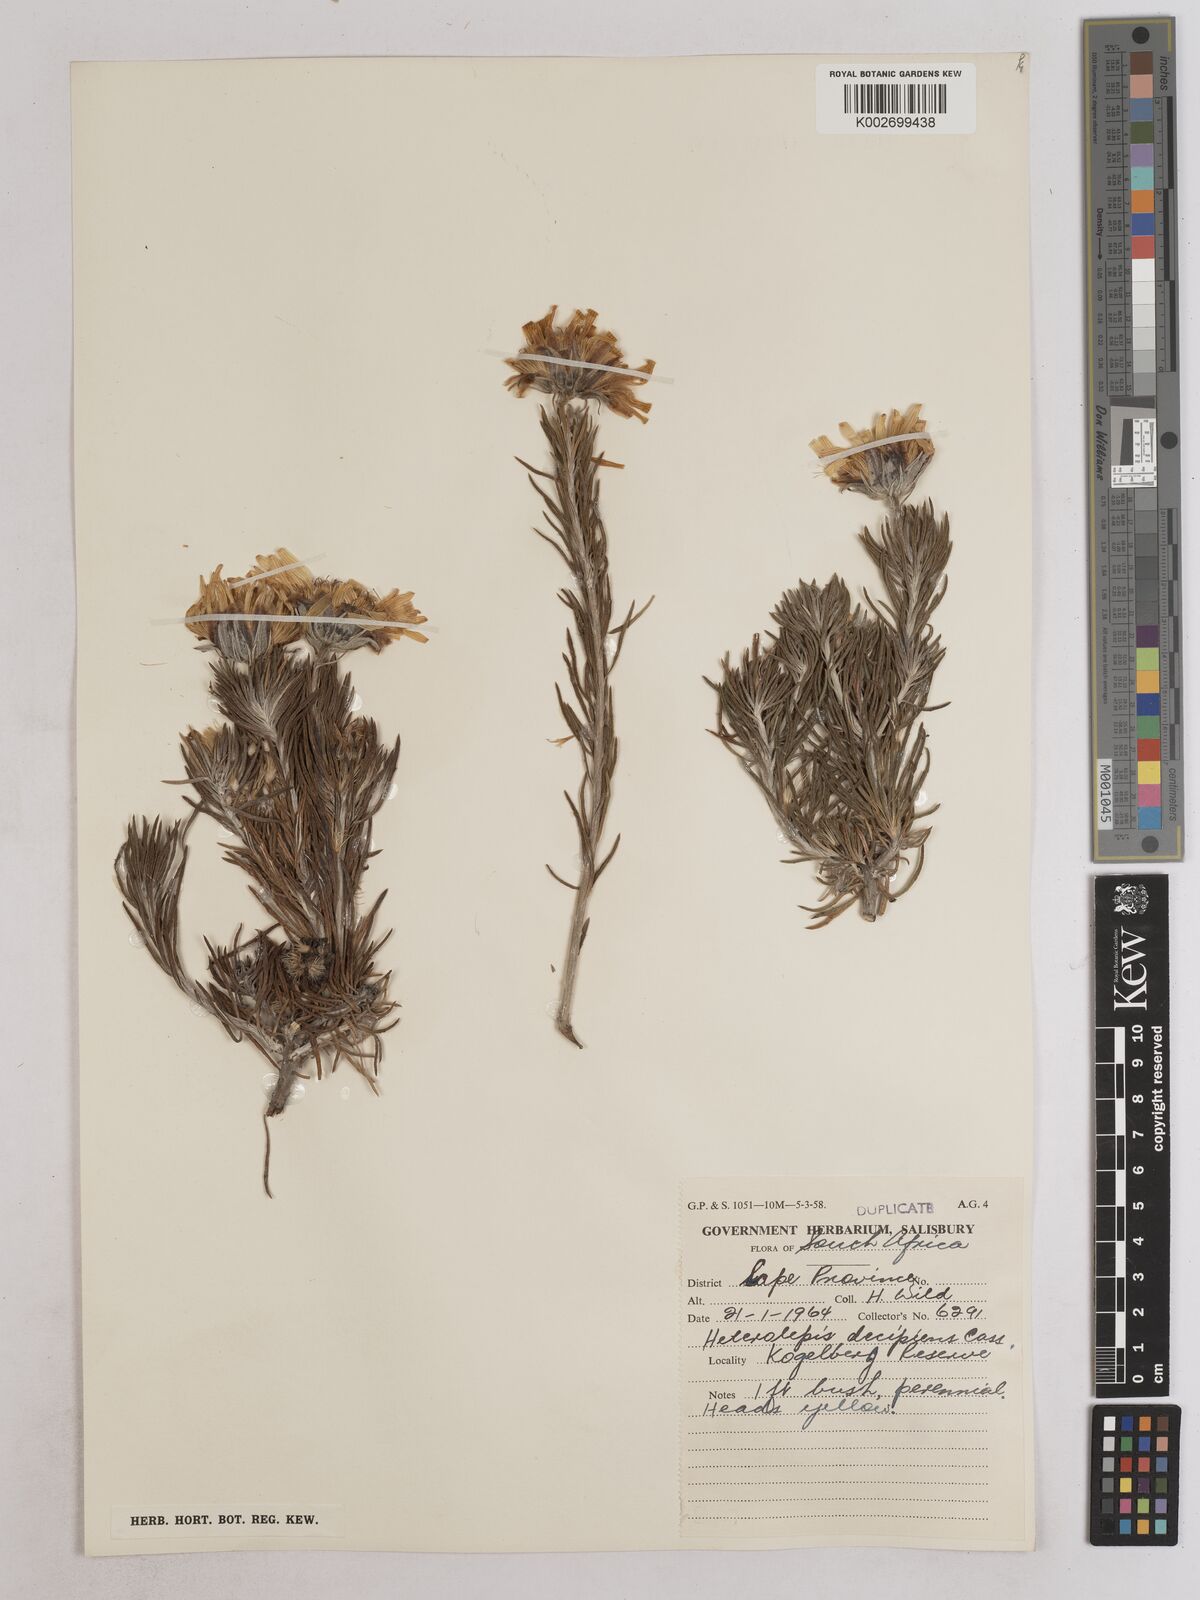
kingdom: Plantae
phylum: Tracheophyta
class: Magnoliopsida
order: Asterales
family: Asteraceae
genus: Heterolepis
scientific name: Heterolepis aliena
